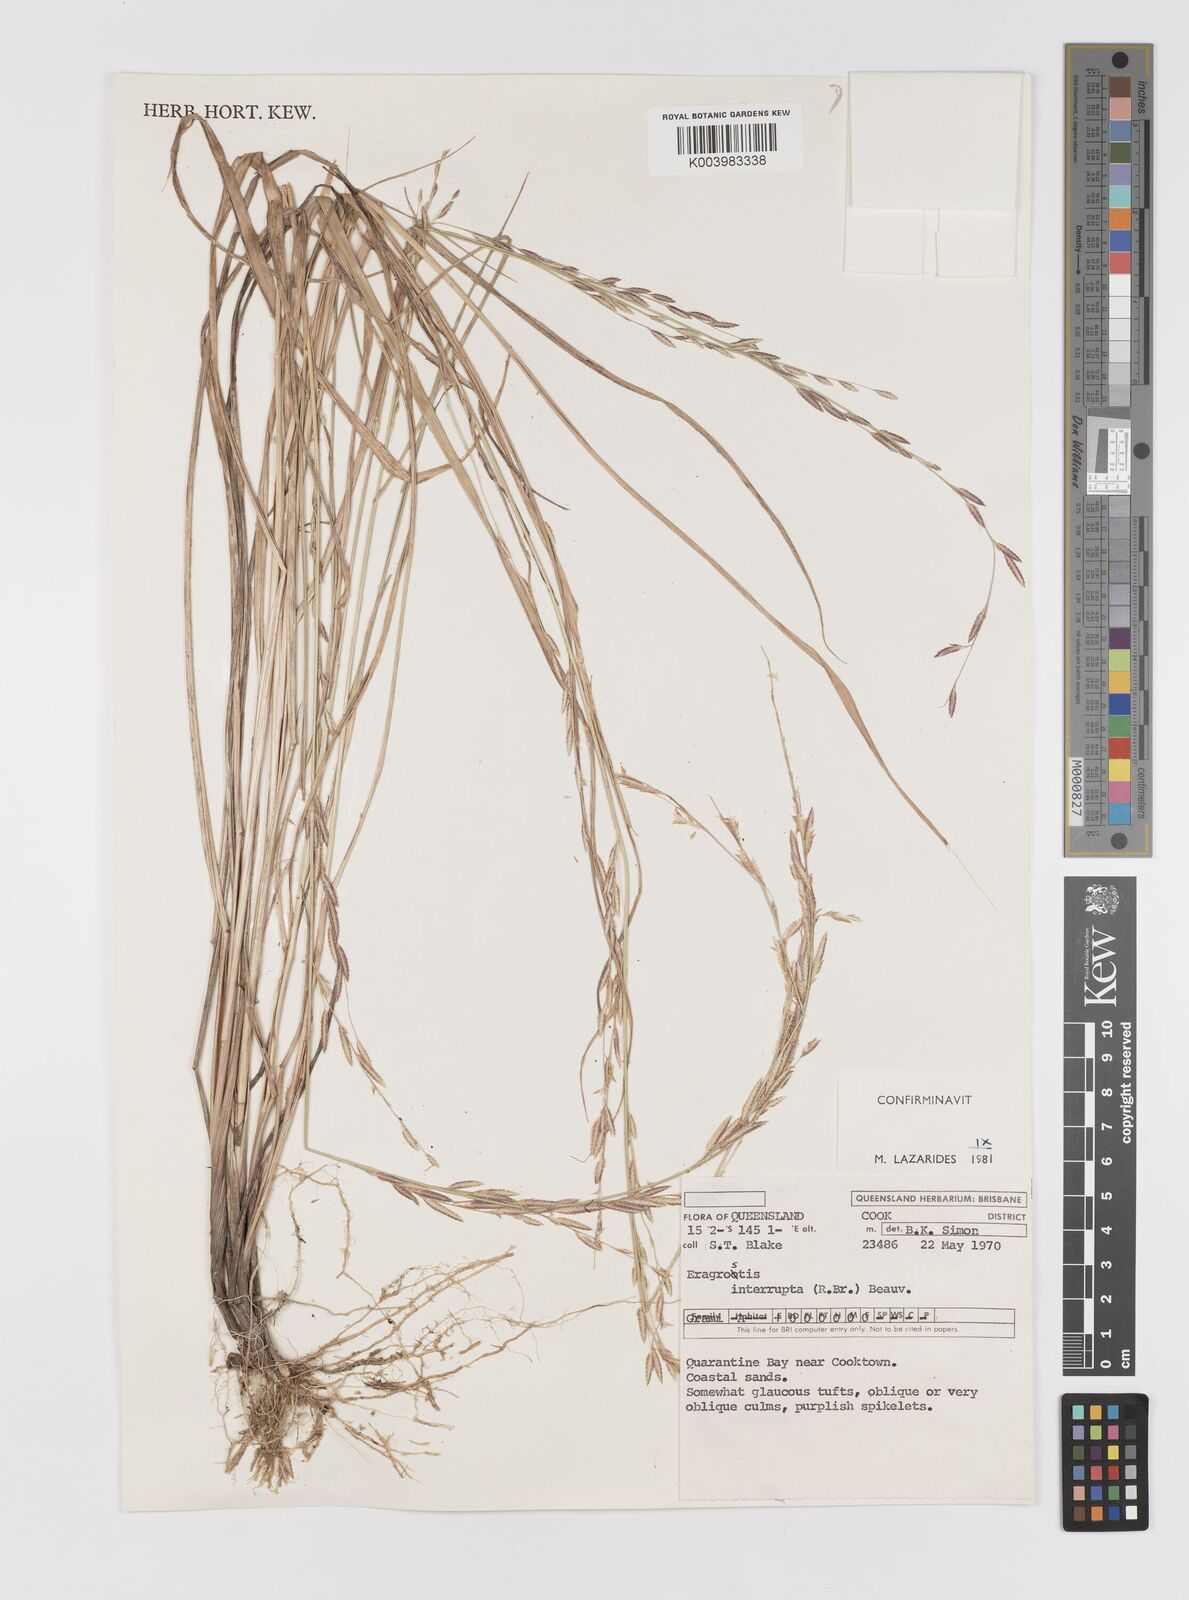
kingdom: Plantae
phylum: Tracheophyta
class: Liliopsida
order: Poales
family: Poaceae
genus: Eragrostis
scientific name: Eragrostis interrupta
